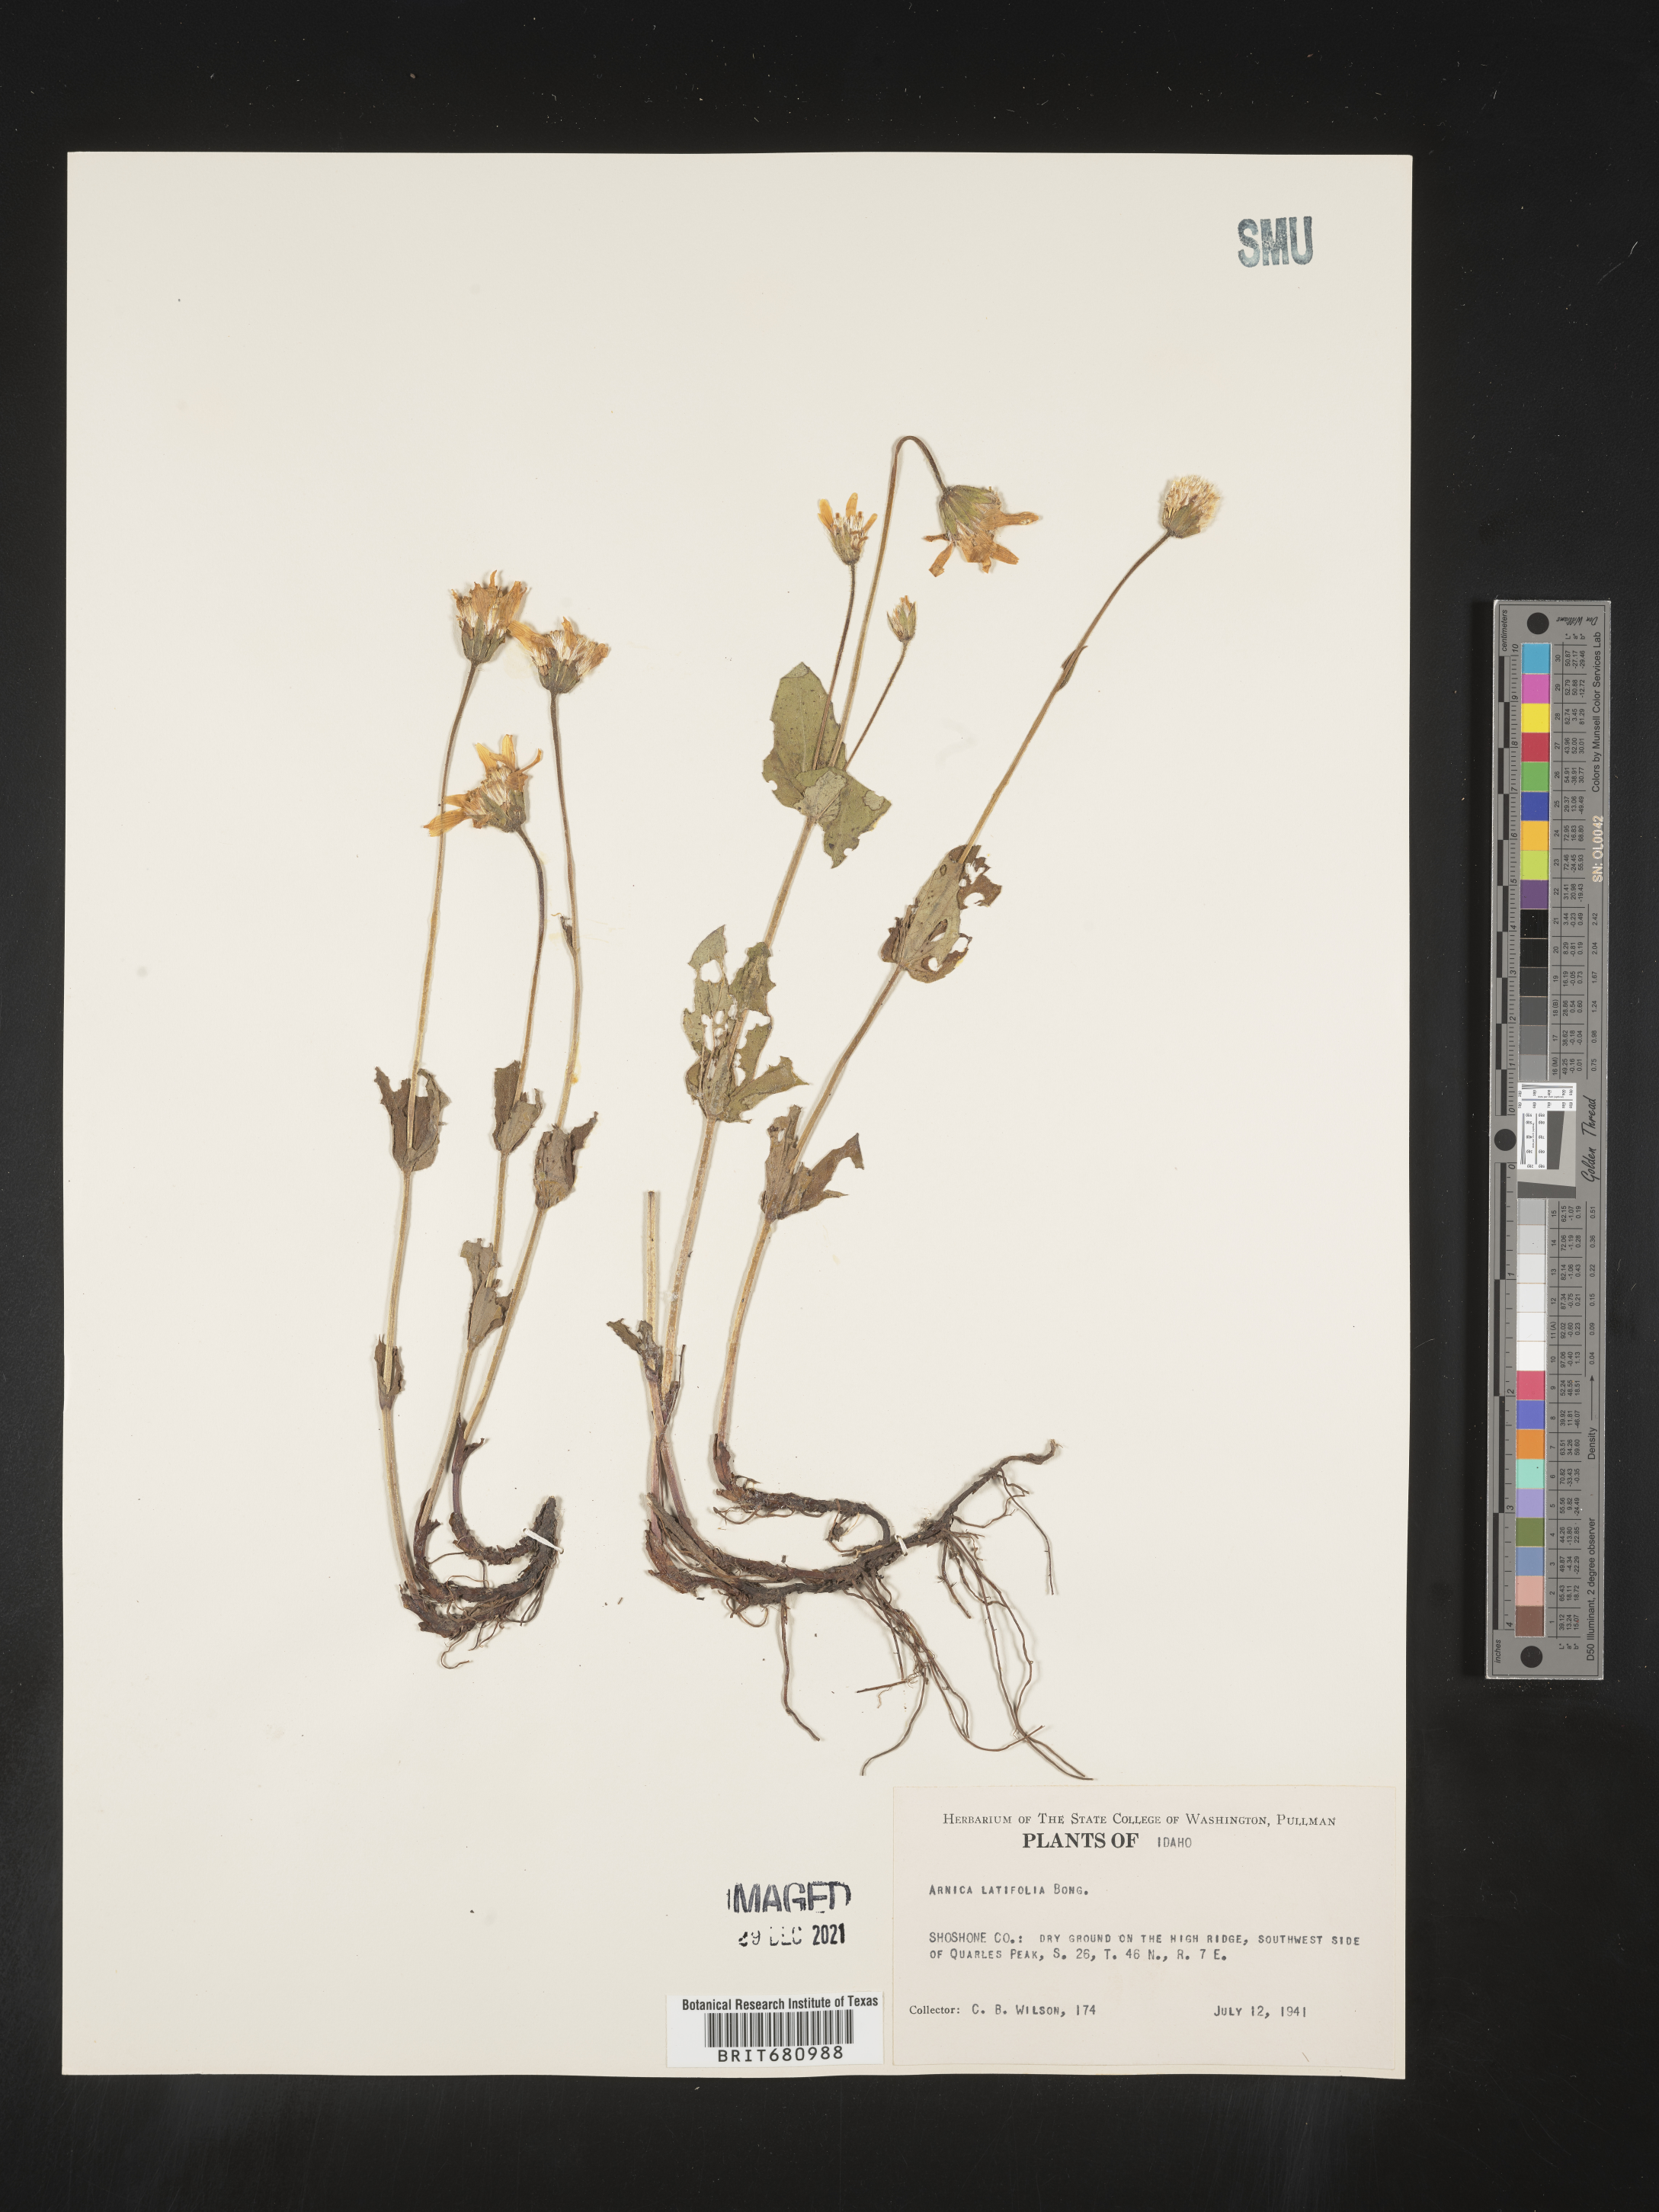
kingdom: Plantae
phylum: Tracheophyta
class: Magnoliopsida
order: Asterales
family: Asteraceae
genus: Arnica
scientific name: Arnica latifolia
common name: Arnica
